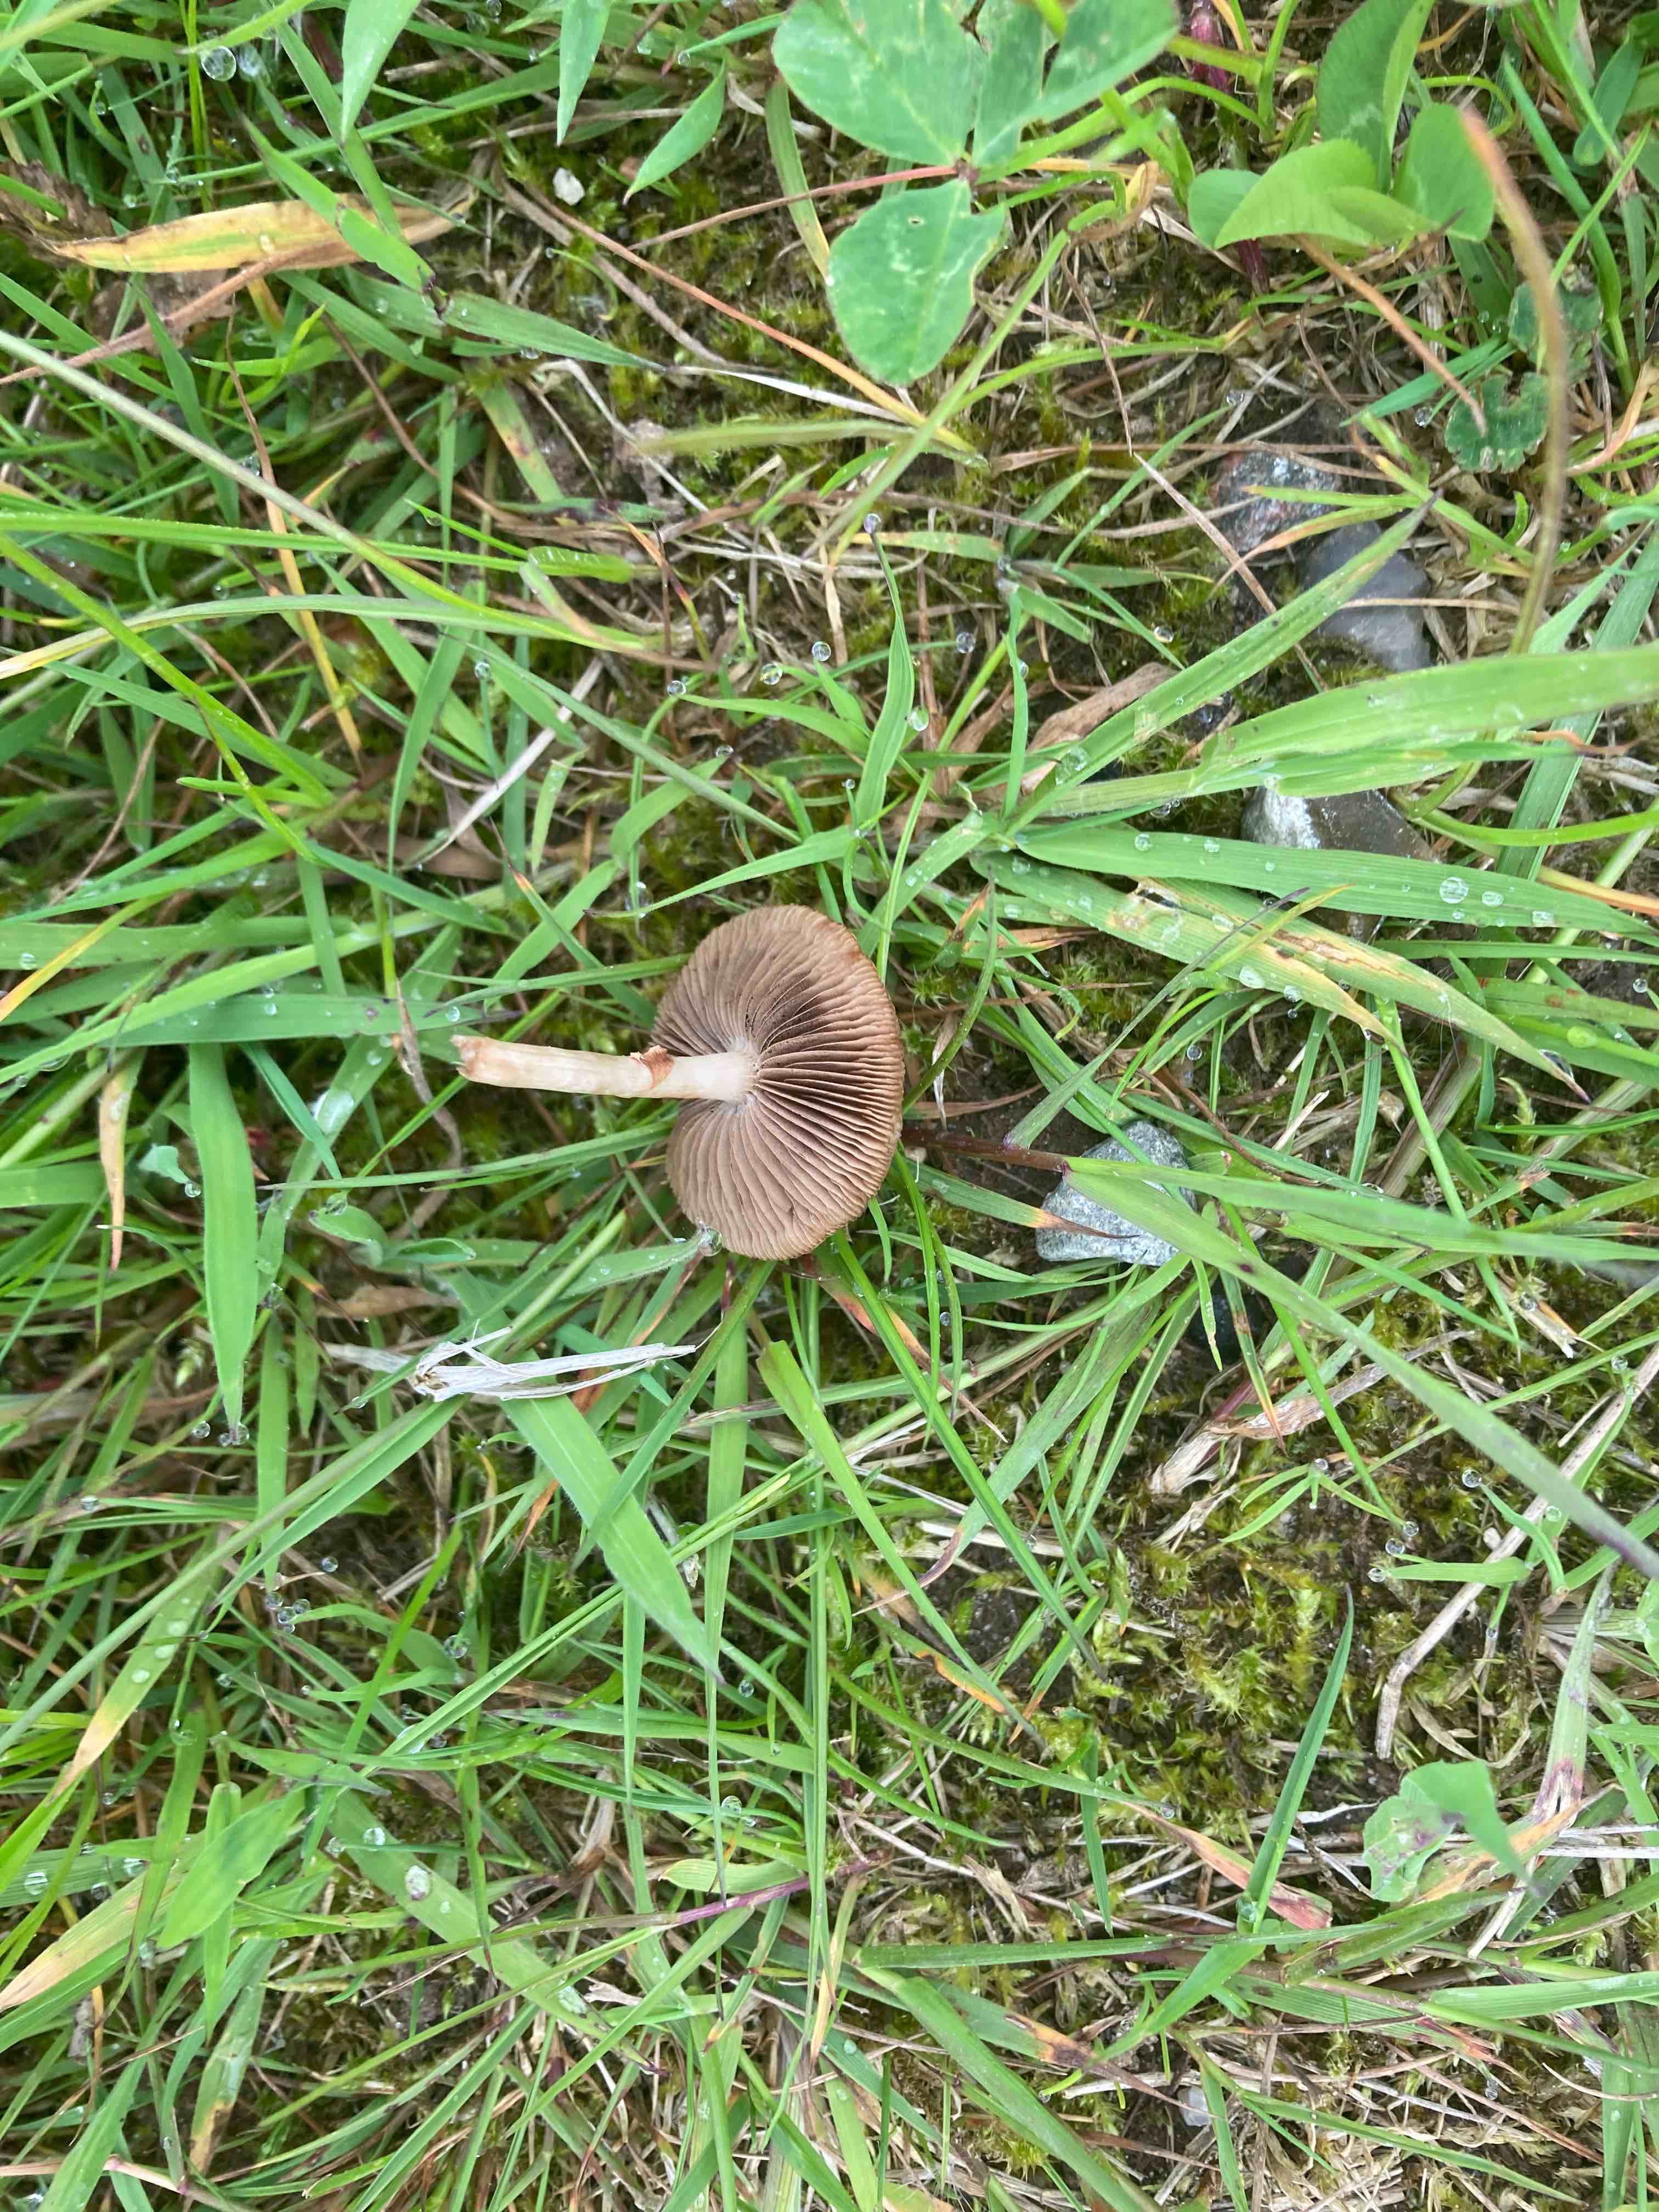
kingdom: Fungi
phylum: Basidiomycota
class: Agaricomycetes
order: Agaricales
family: Strophariaceae
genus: Agrocybe
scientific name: Agrocybe elatella
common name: mose-agerhat
